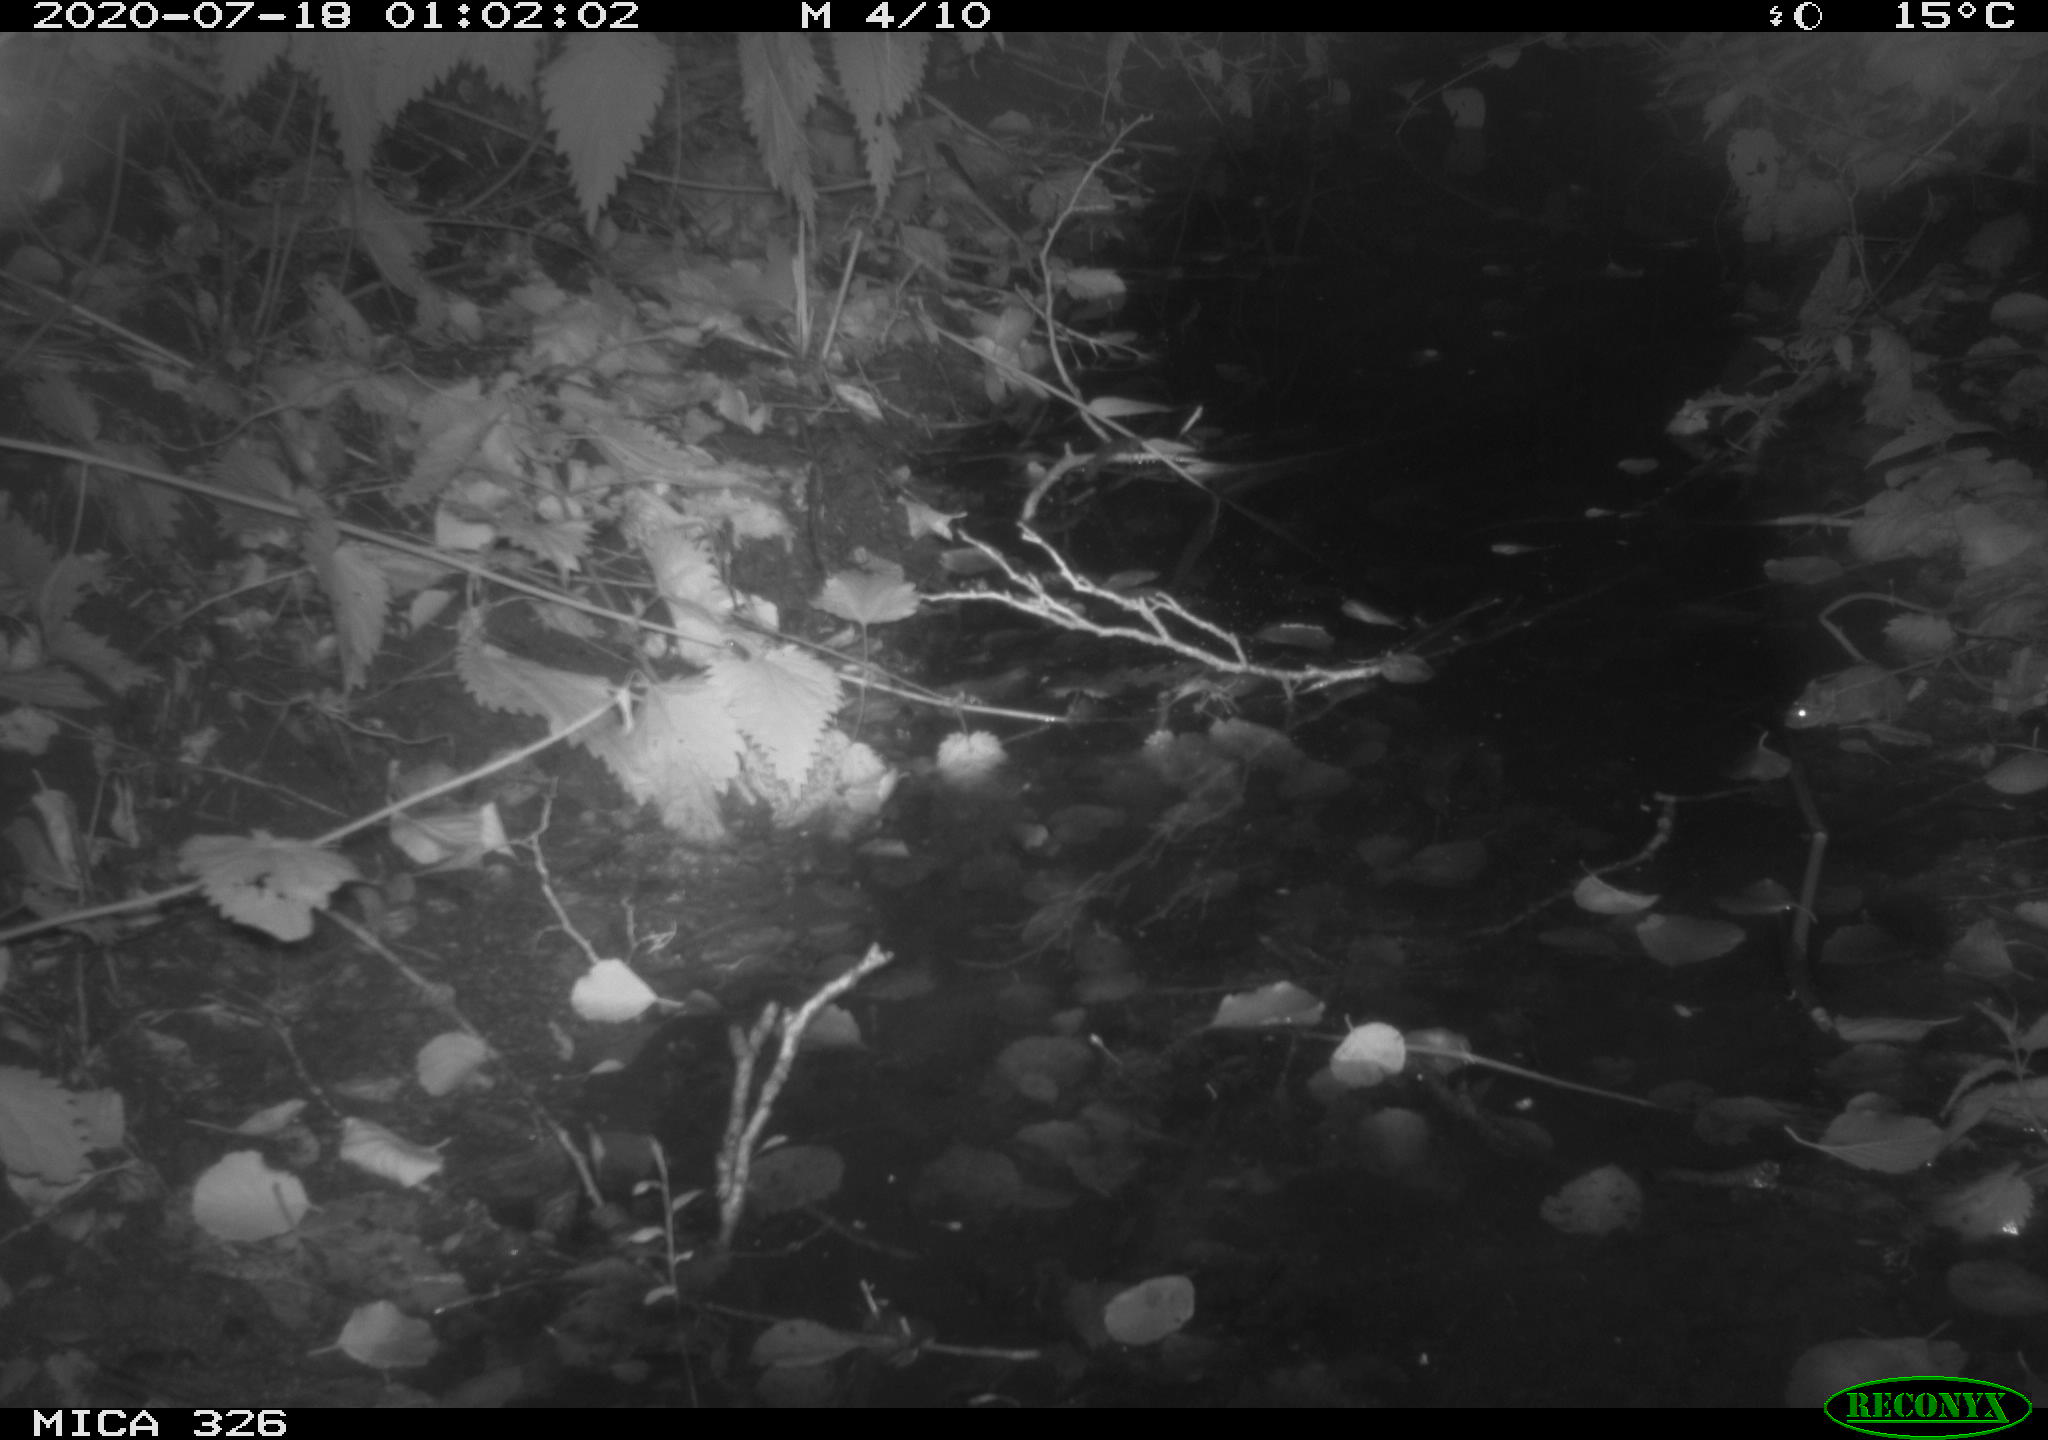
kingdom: Animalia
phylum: Chordata
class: Mammalia
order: Rodentia
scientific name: Rodentia
